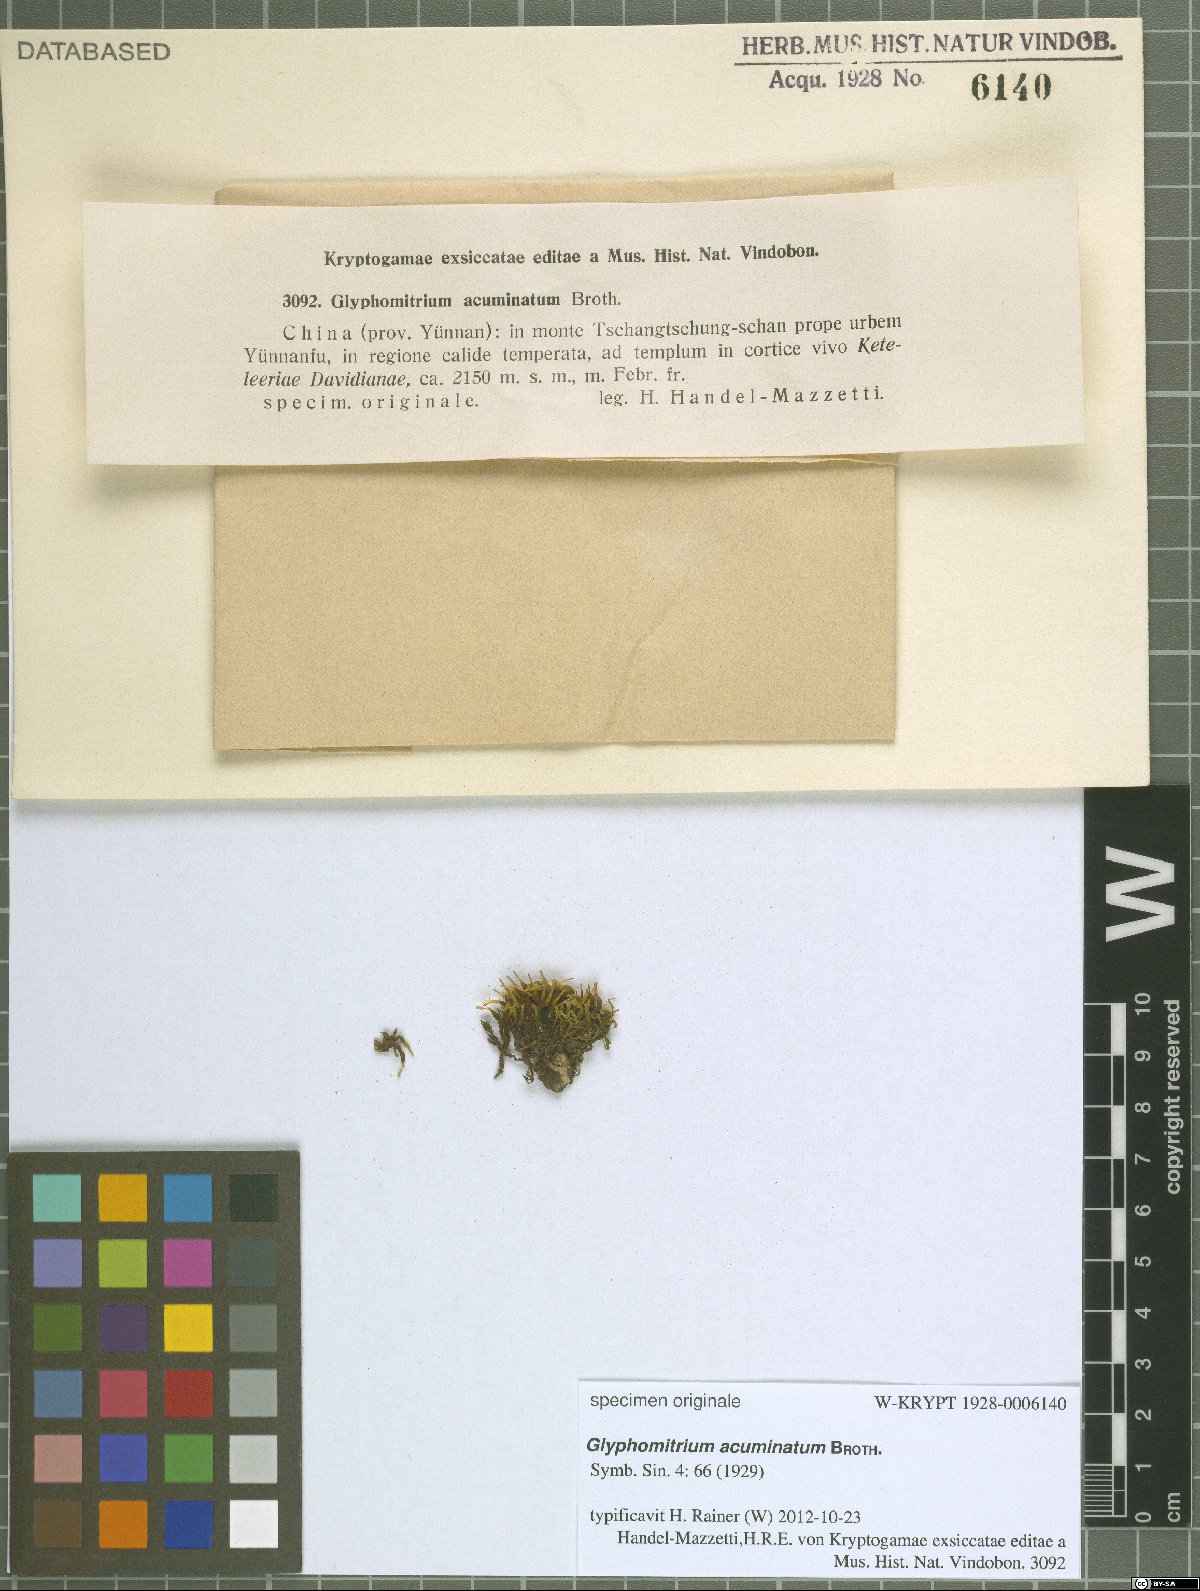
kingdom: Plantae
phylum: Bryophyta
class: Bryopsida
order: Dicranales
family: Rhabdoweisiaceae
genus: Glyphomitrium
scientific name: Glyphomitrium acuminatum
